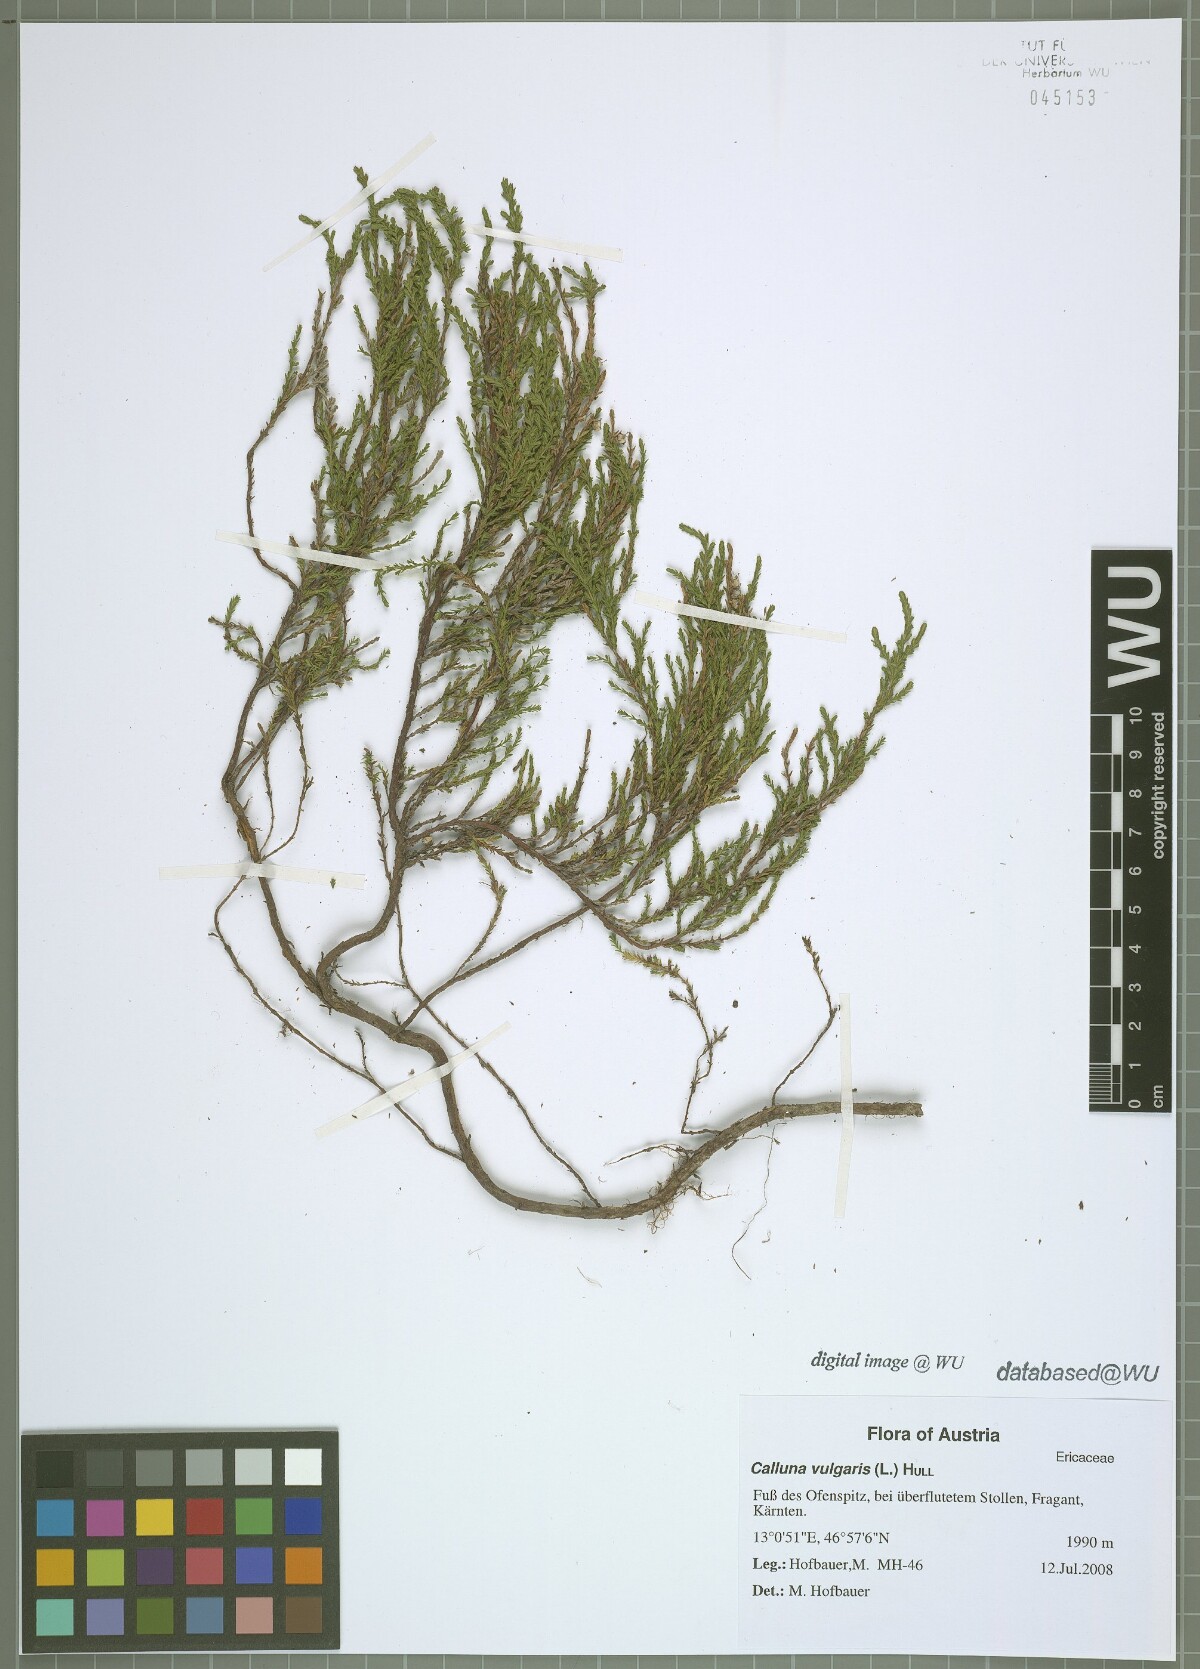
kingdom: Plantae
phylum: Tracheophyta
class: Magnoliopsida
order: Ericales
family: Ericaceae
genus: Calluna
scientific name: Calluna vulgaris
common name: Heather
